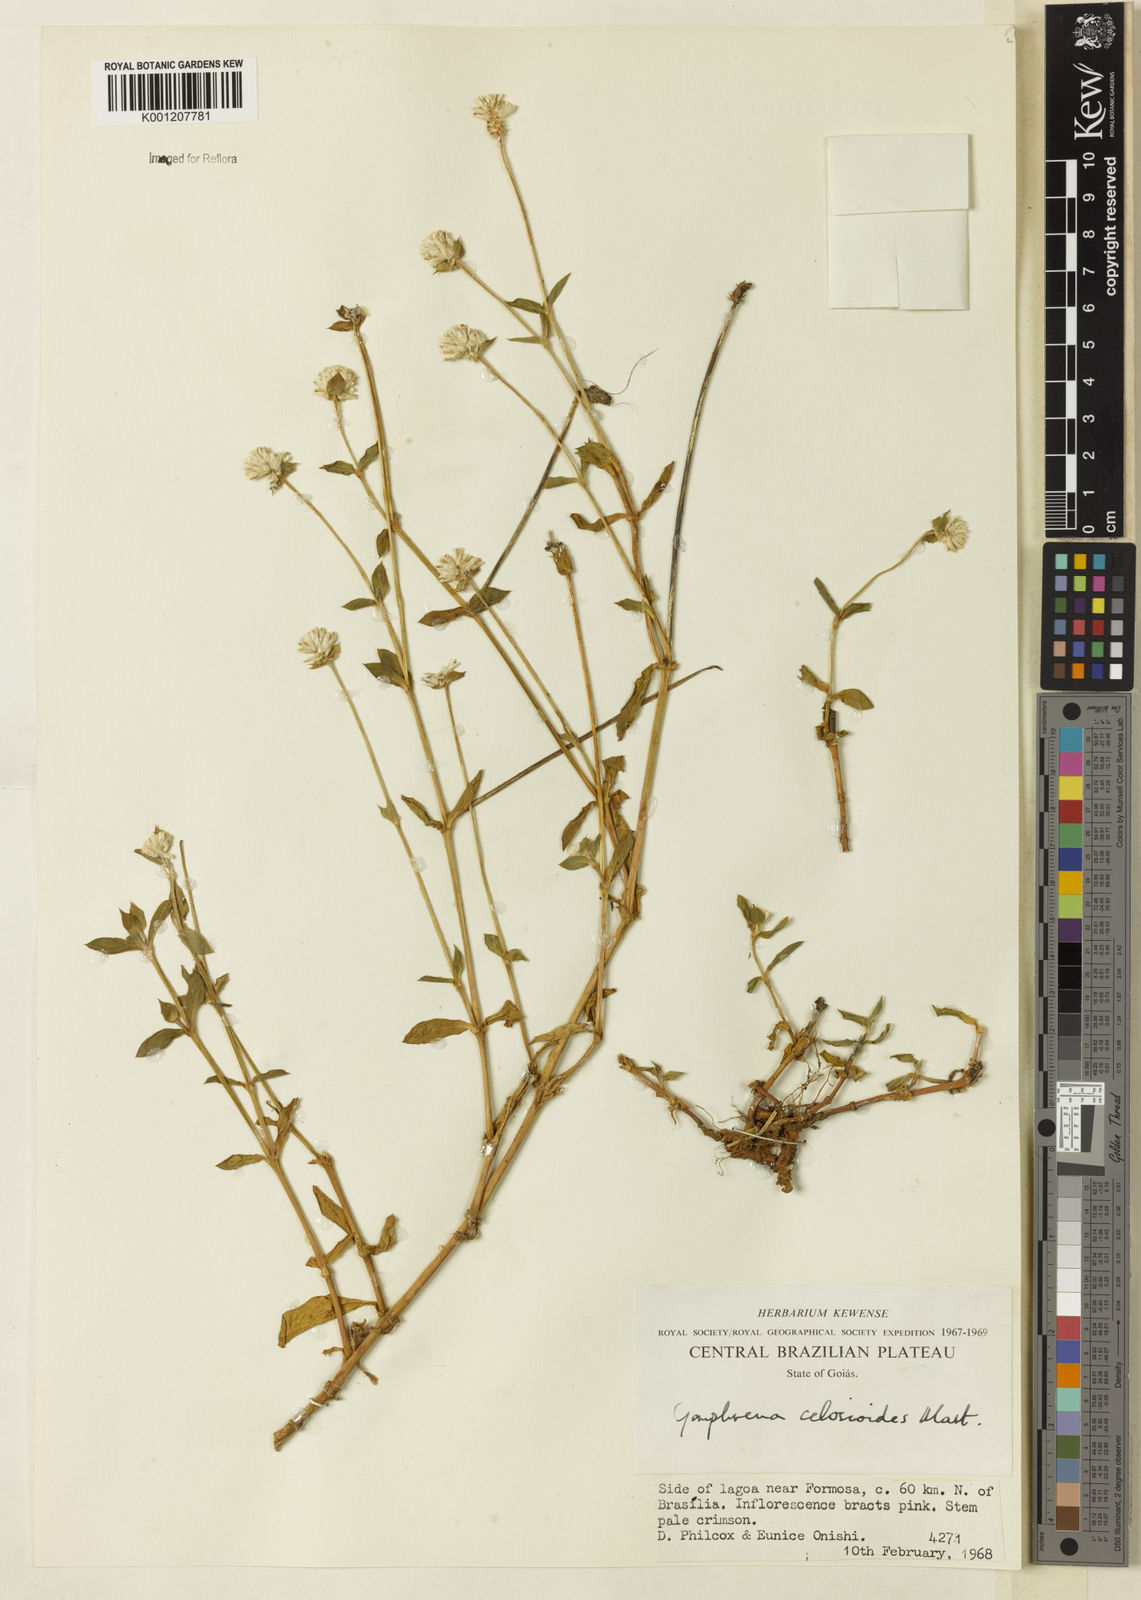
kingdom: Plantae
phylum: Tracheophyta
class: Magnoliopsida
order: Caryophyllales
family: Amaranthaceae
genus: Gomphrena
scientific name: Gomphrena celosioides
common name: Gomphrena-weed
